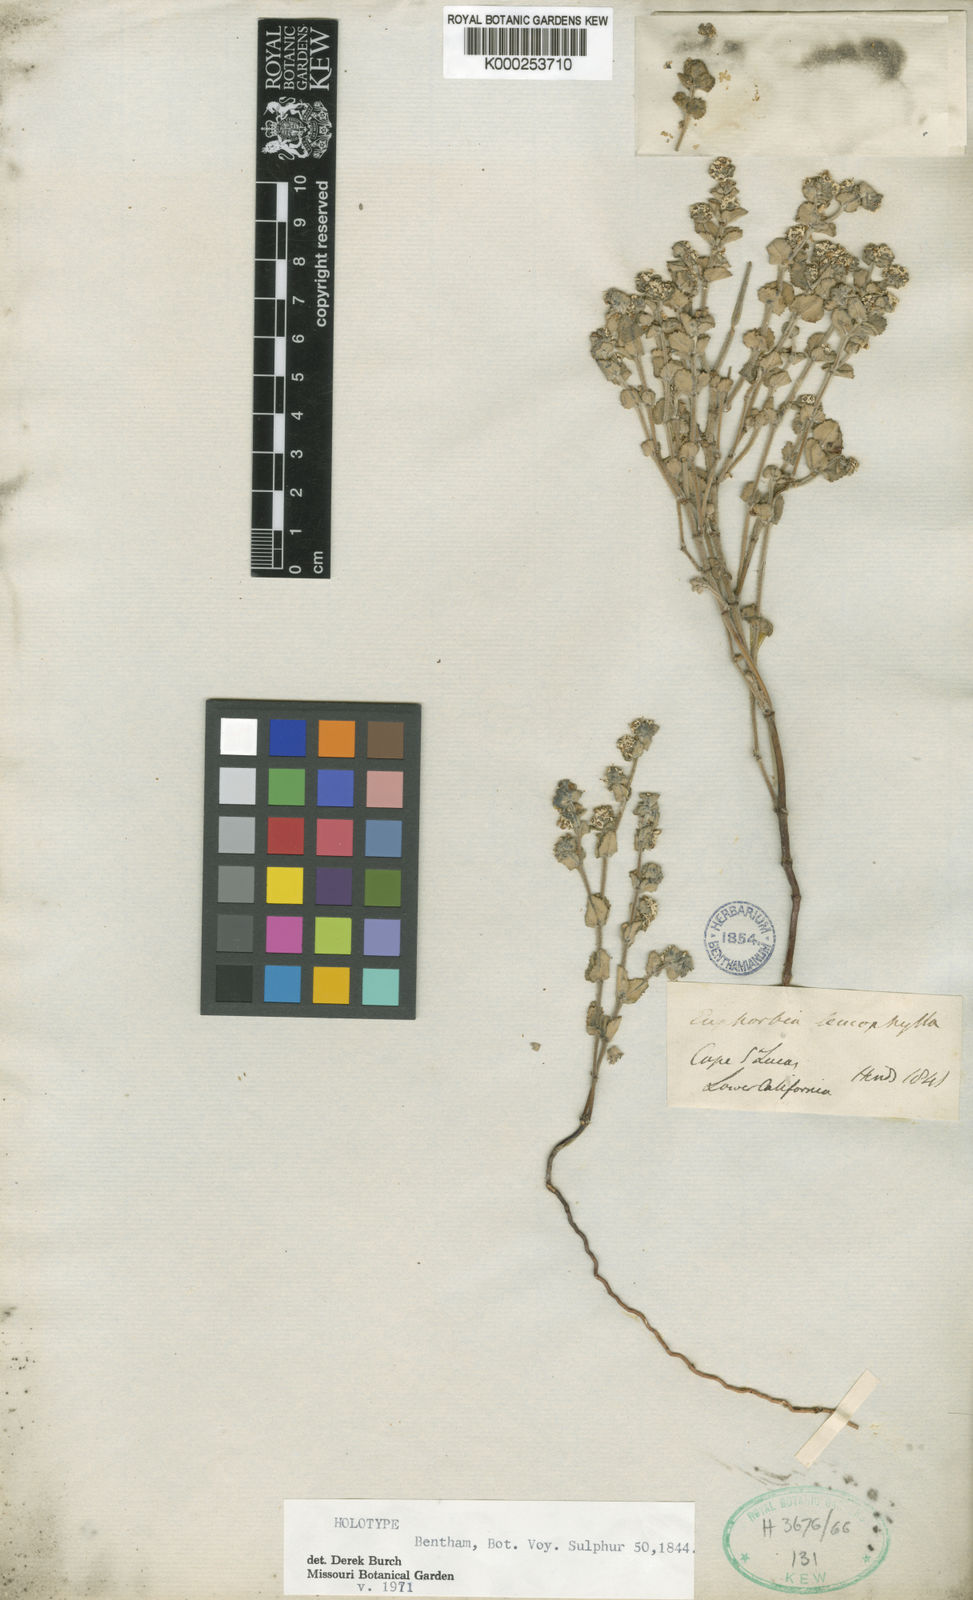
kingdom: Plantae
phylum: Tracheophyta
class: Magnoliopsida
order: Malpighiales
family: Euphorbiaceae
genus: Euphorbia
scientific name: Euphorbia leucophylla
